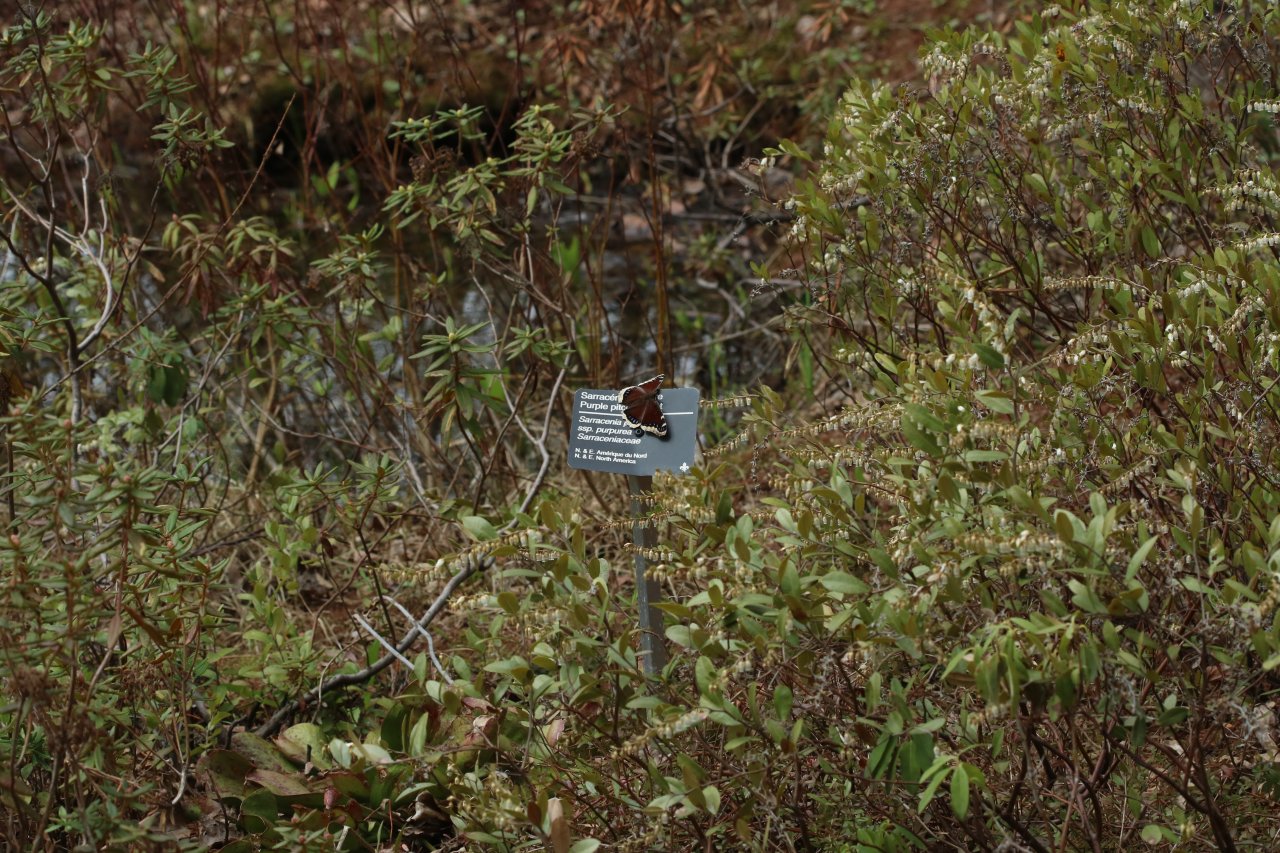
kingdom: Animalia
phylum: Arthropoda
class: Insecta
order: Lepidoptera
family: Nymphalidae
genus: Nymphalis
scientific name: Nymphalis antiopa
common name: Mourning Cloak
